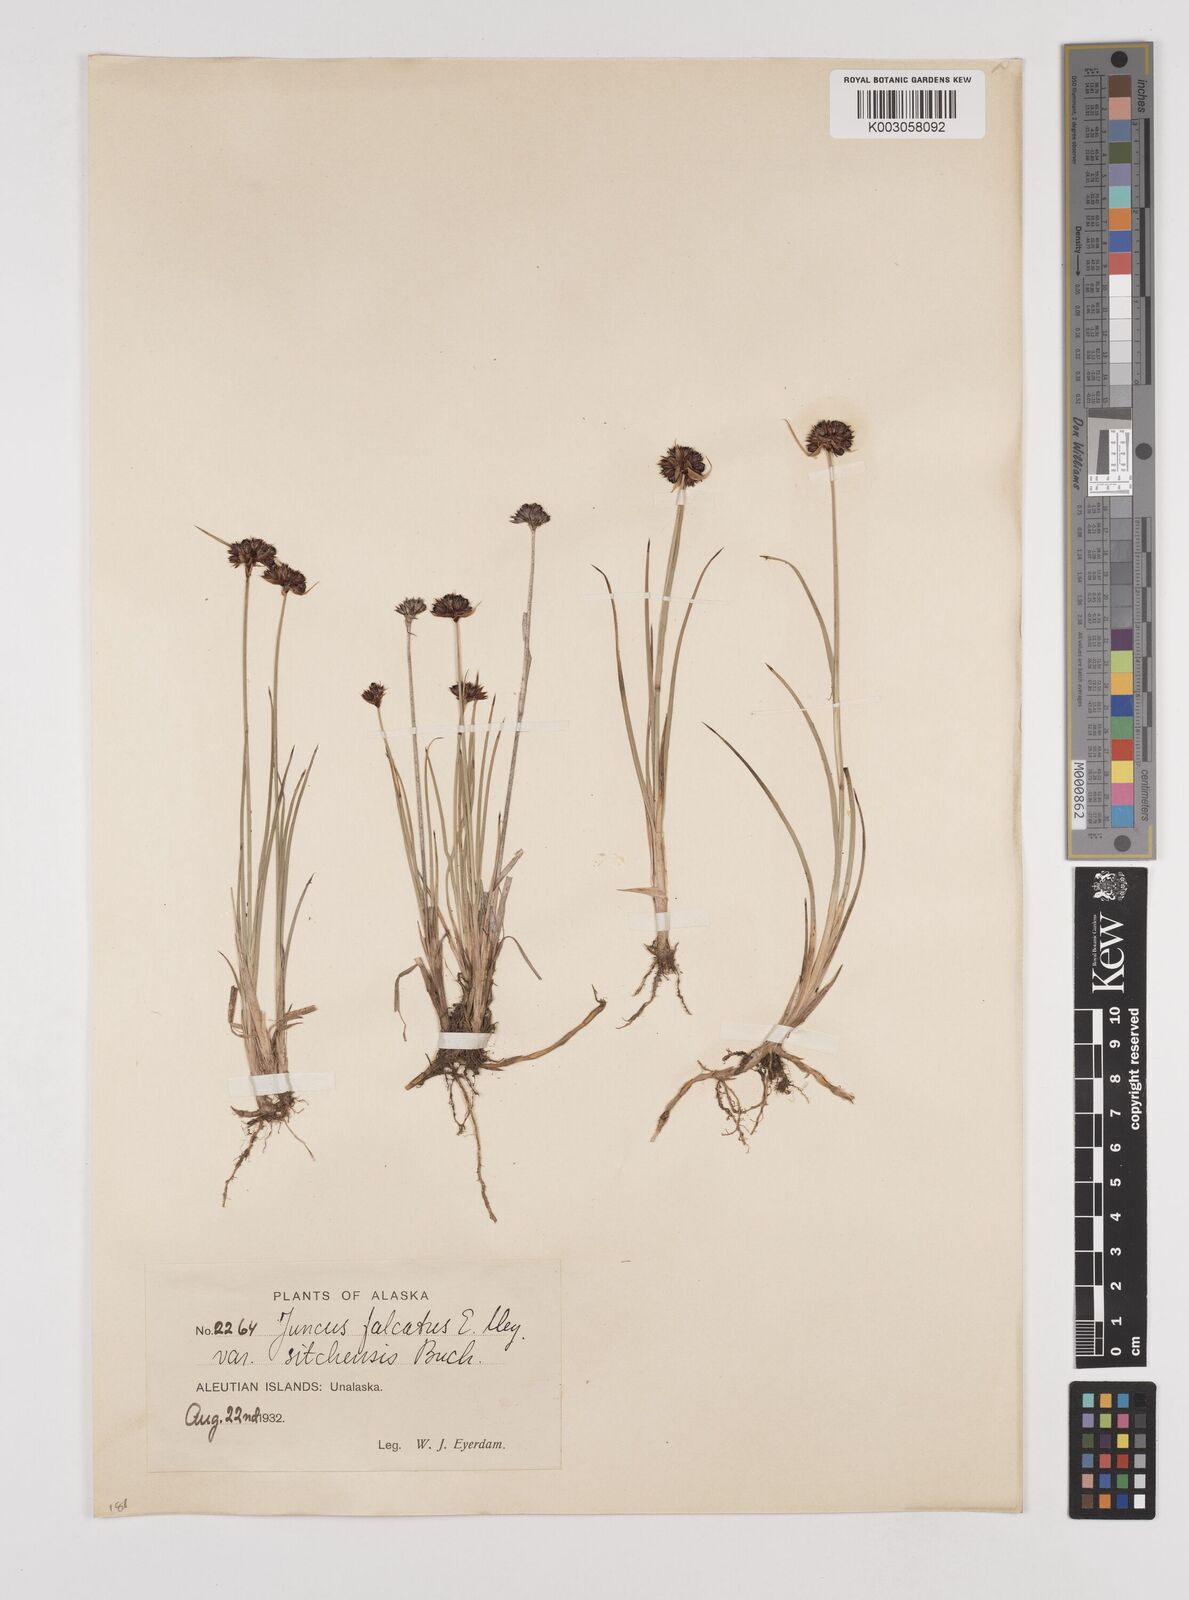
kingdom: Plantae
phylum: Tracheophyta
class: Liliopsida
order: Poales
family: Juncaceae
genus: Juncus
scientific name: Juncus falcatus
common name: Sickle-leaf rush
